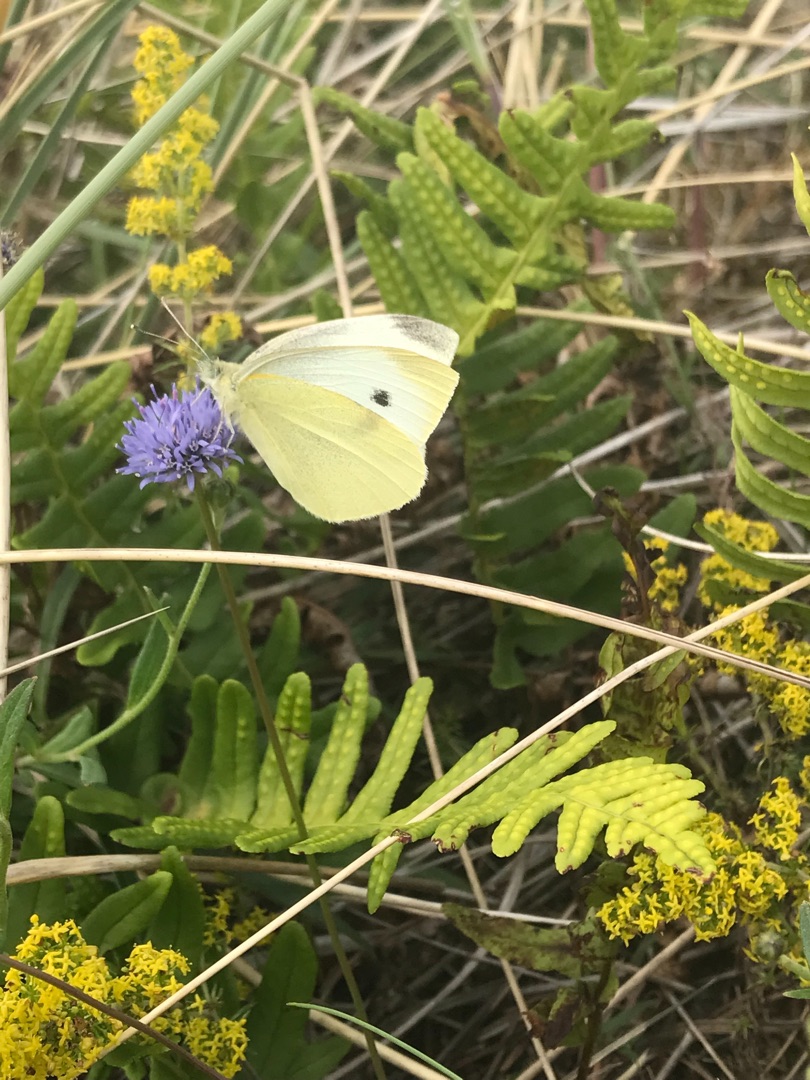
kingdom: Animalia
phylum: Arthropoda
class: Insecta
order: Lepidoptera
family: Pieridae
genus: Pieris
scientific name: Pieris rapae
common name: Lille kålsommerfugl
